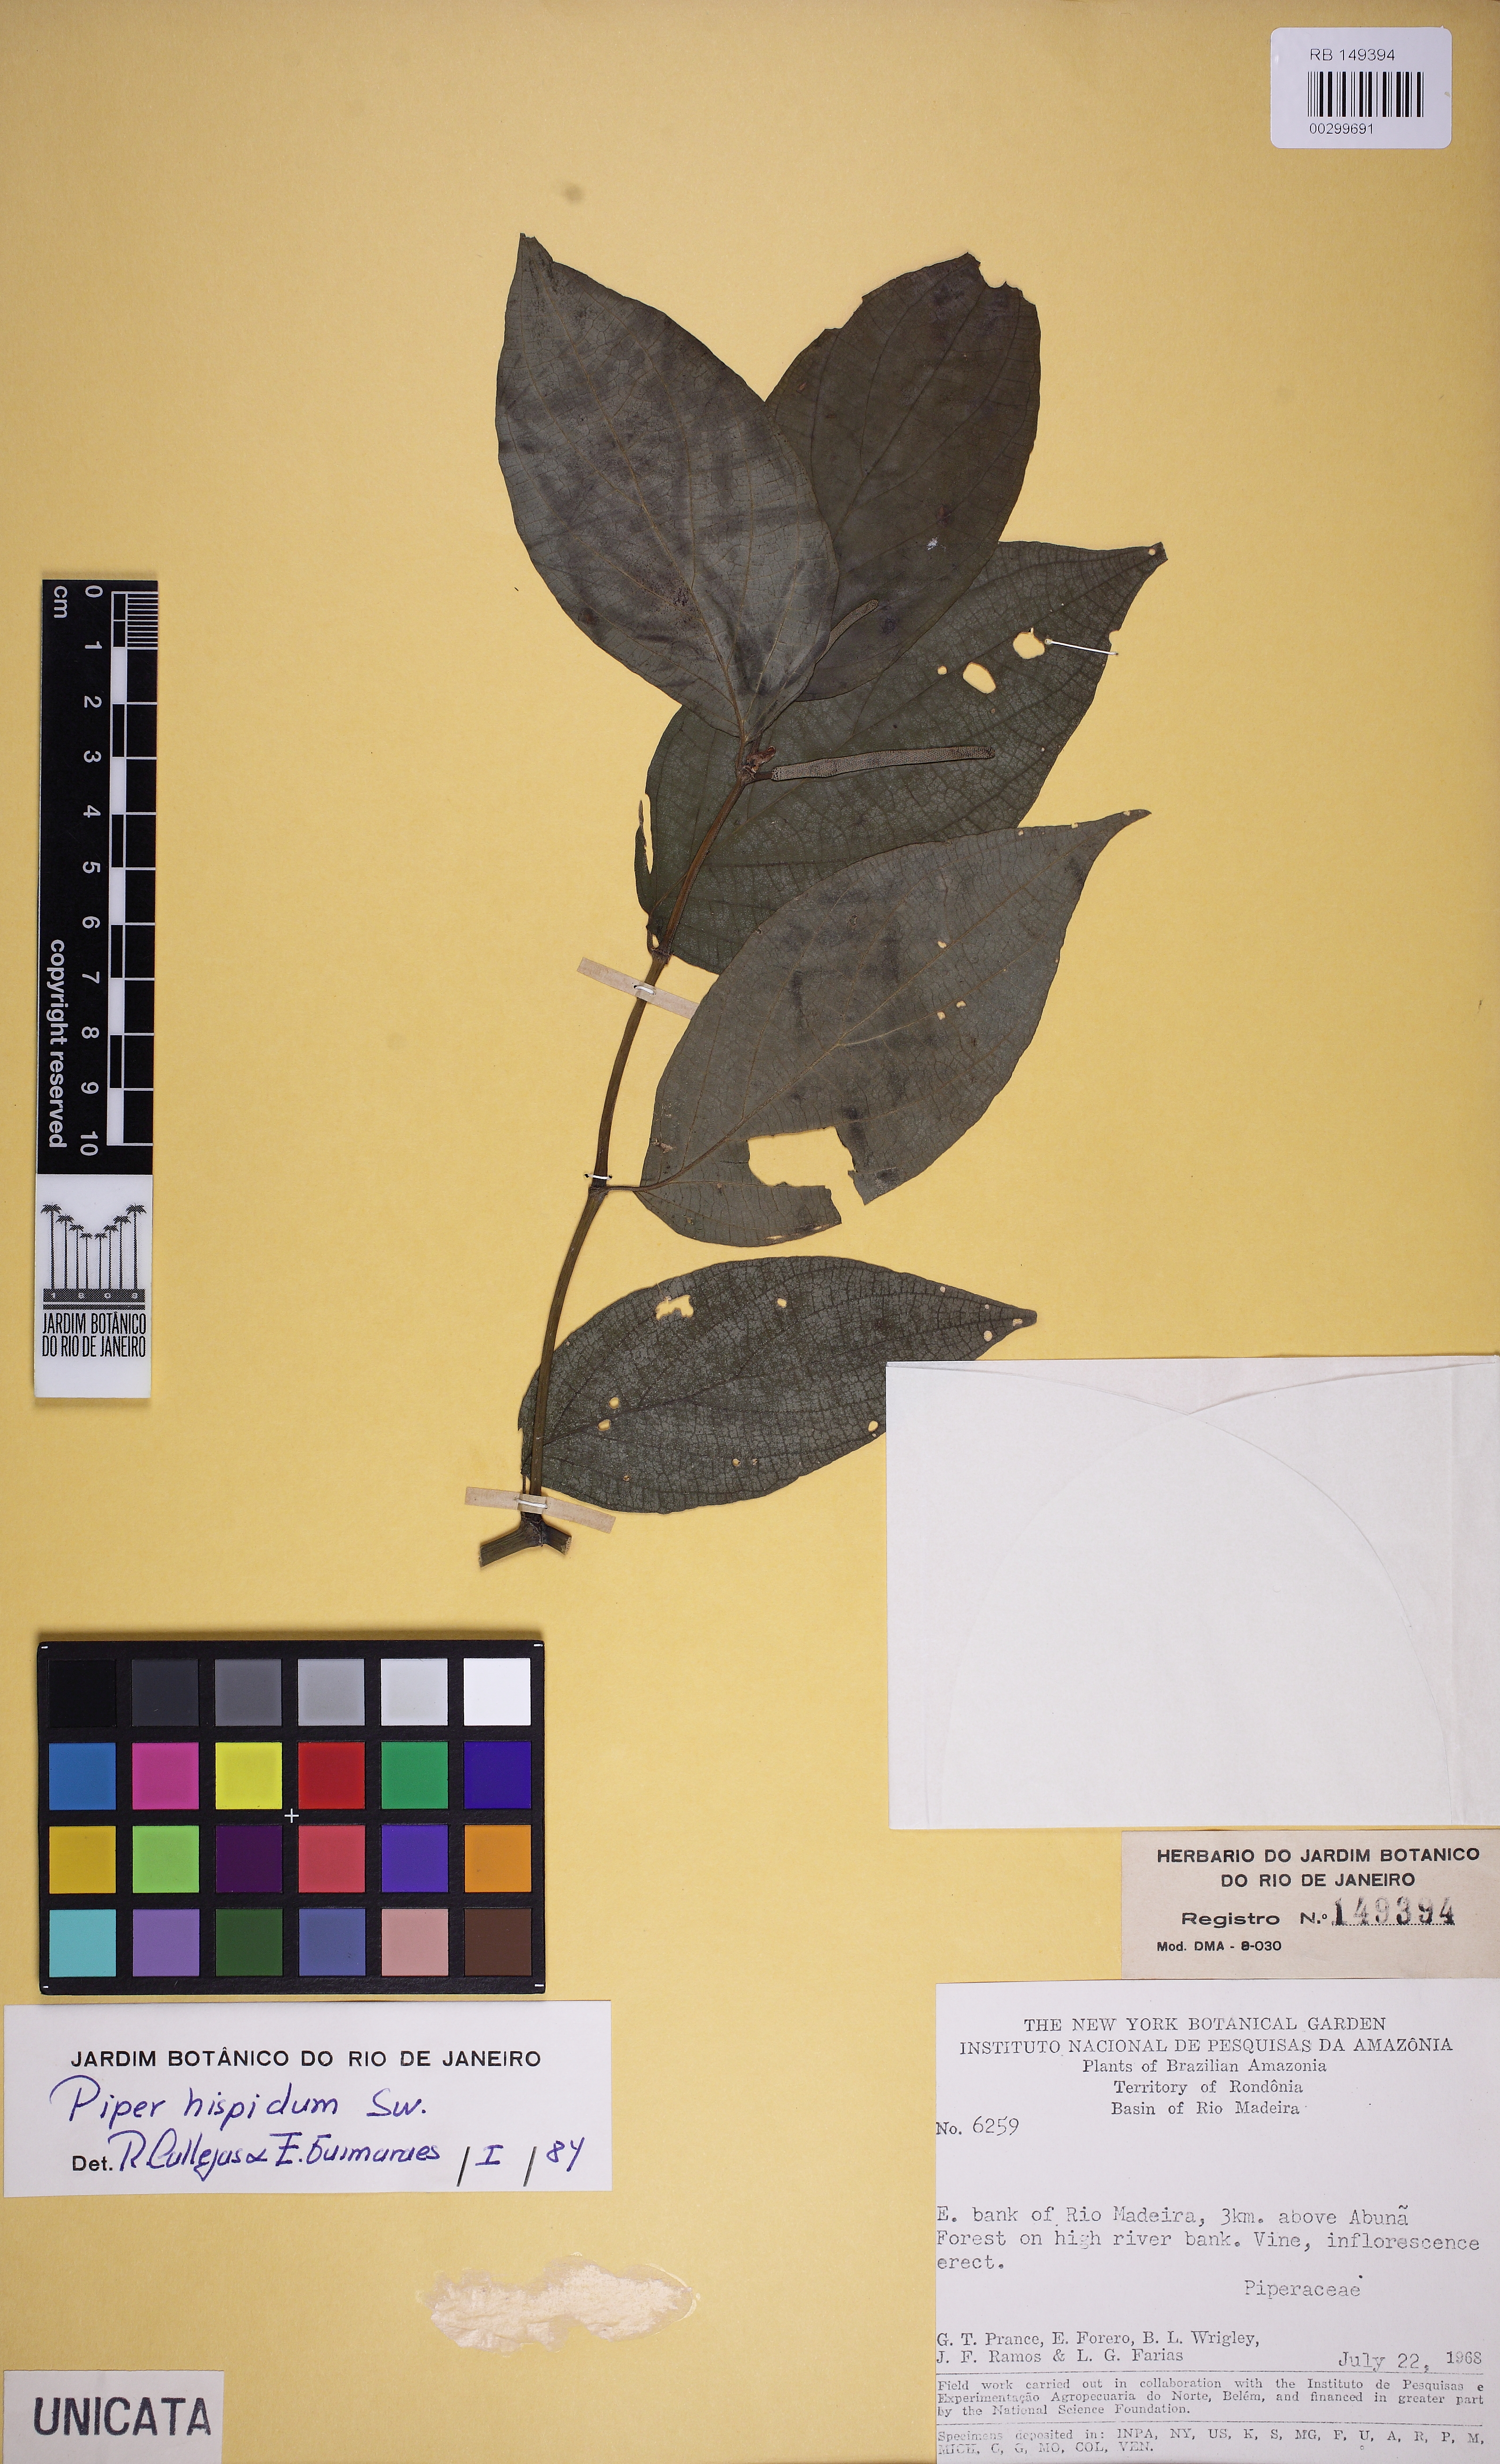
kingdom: Plantae
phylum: Tracheophyta
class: Magnoliopsida
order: Piperales
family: Piperaceae
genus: Piper
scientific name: Piper hispidum
